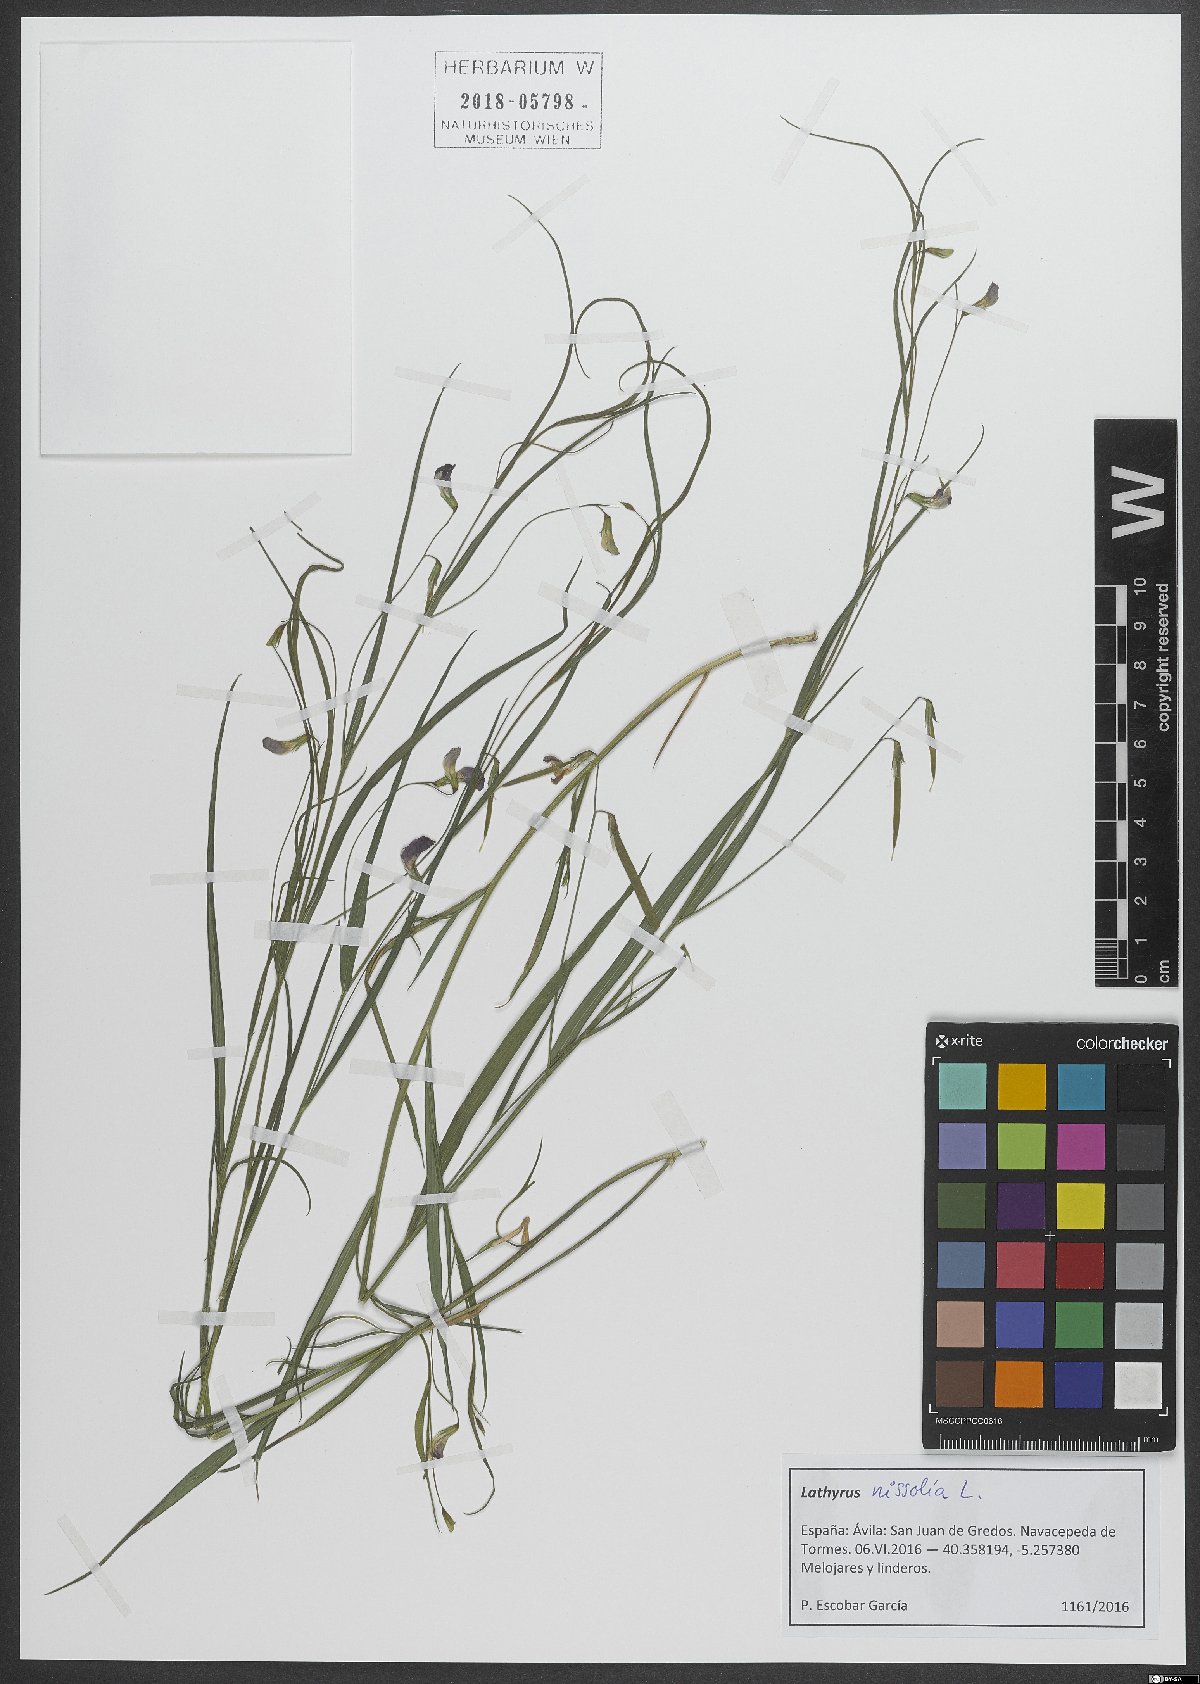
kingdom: Plantae
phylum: Tracheophyta
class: Magnoliopsida
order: Fabales
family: Fabaceae
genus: Lathyrus
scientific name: Lathyrus nissolia
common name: Grass vetchling
